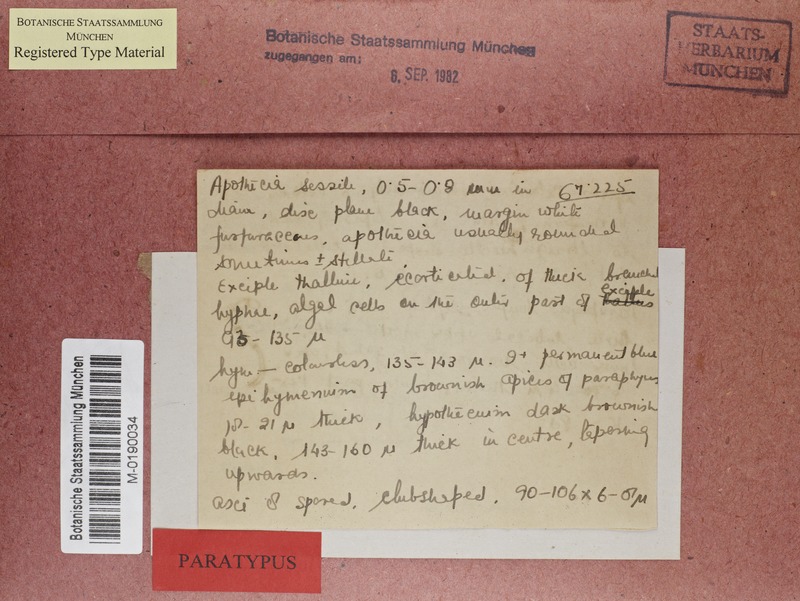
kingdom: Fungi
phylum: Ascomycota
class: Arthoniomycetes
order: Arthoniales
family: Roccellaceae
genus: Graphidastra
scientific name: Graphidastra byssiseda
